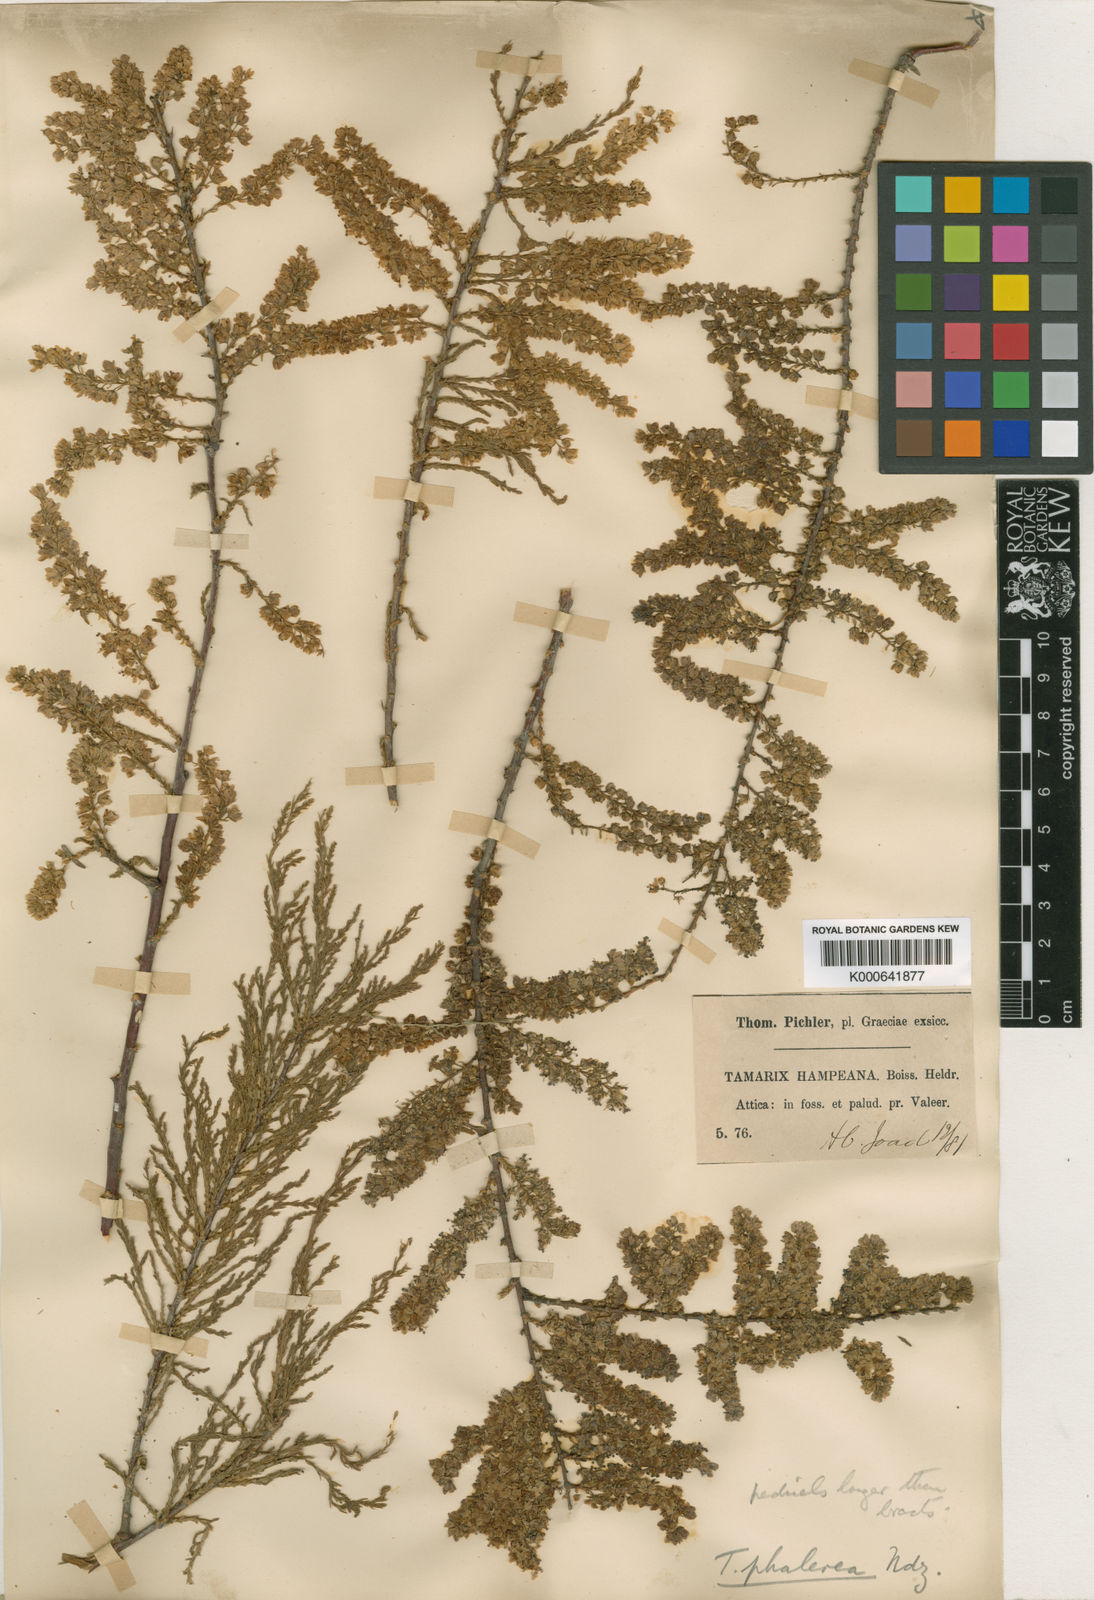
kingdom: Plantae
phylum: Tracheophyta
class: Magnoliopsida
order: Caryophyllales
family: Tamaricaceae
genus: Tamarix
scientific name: Tamarix hampeana
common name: Hampe’s tamarisk
